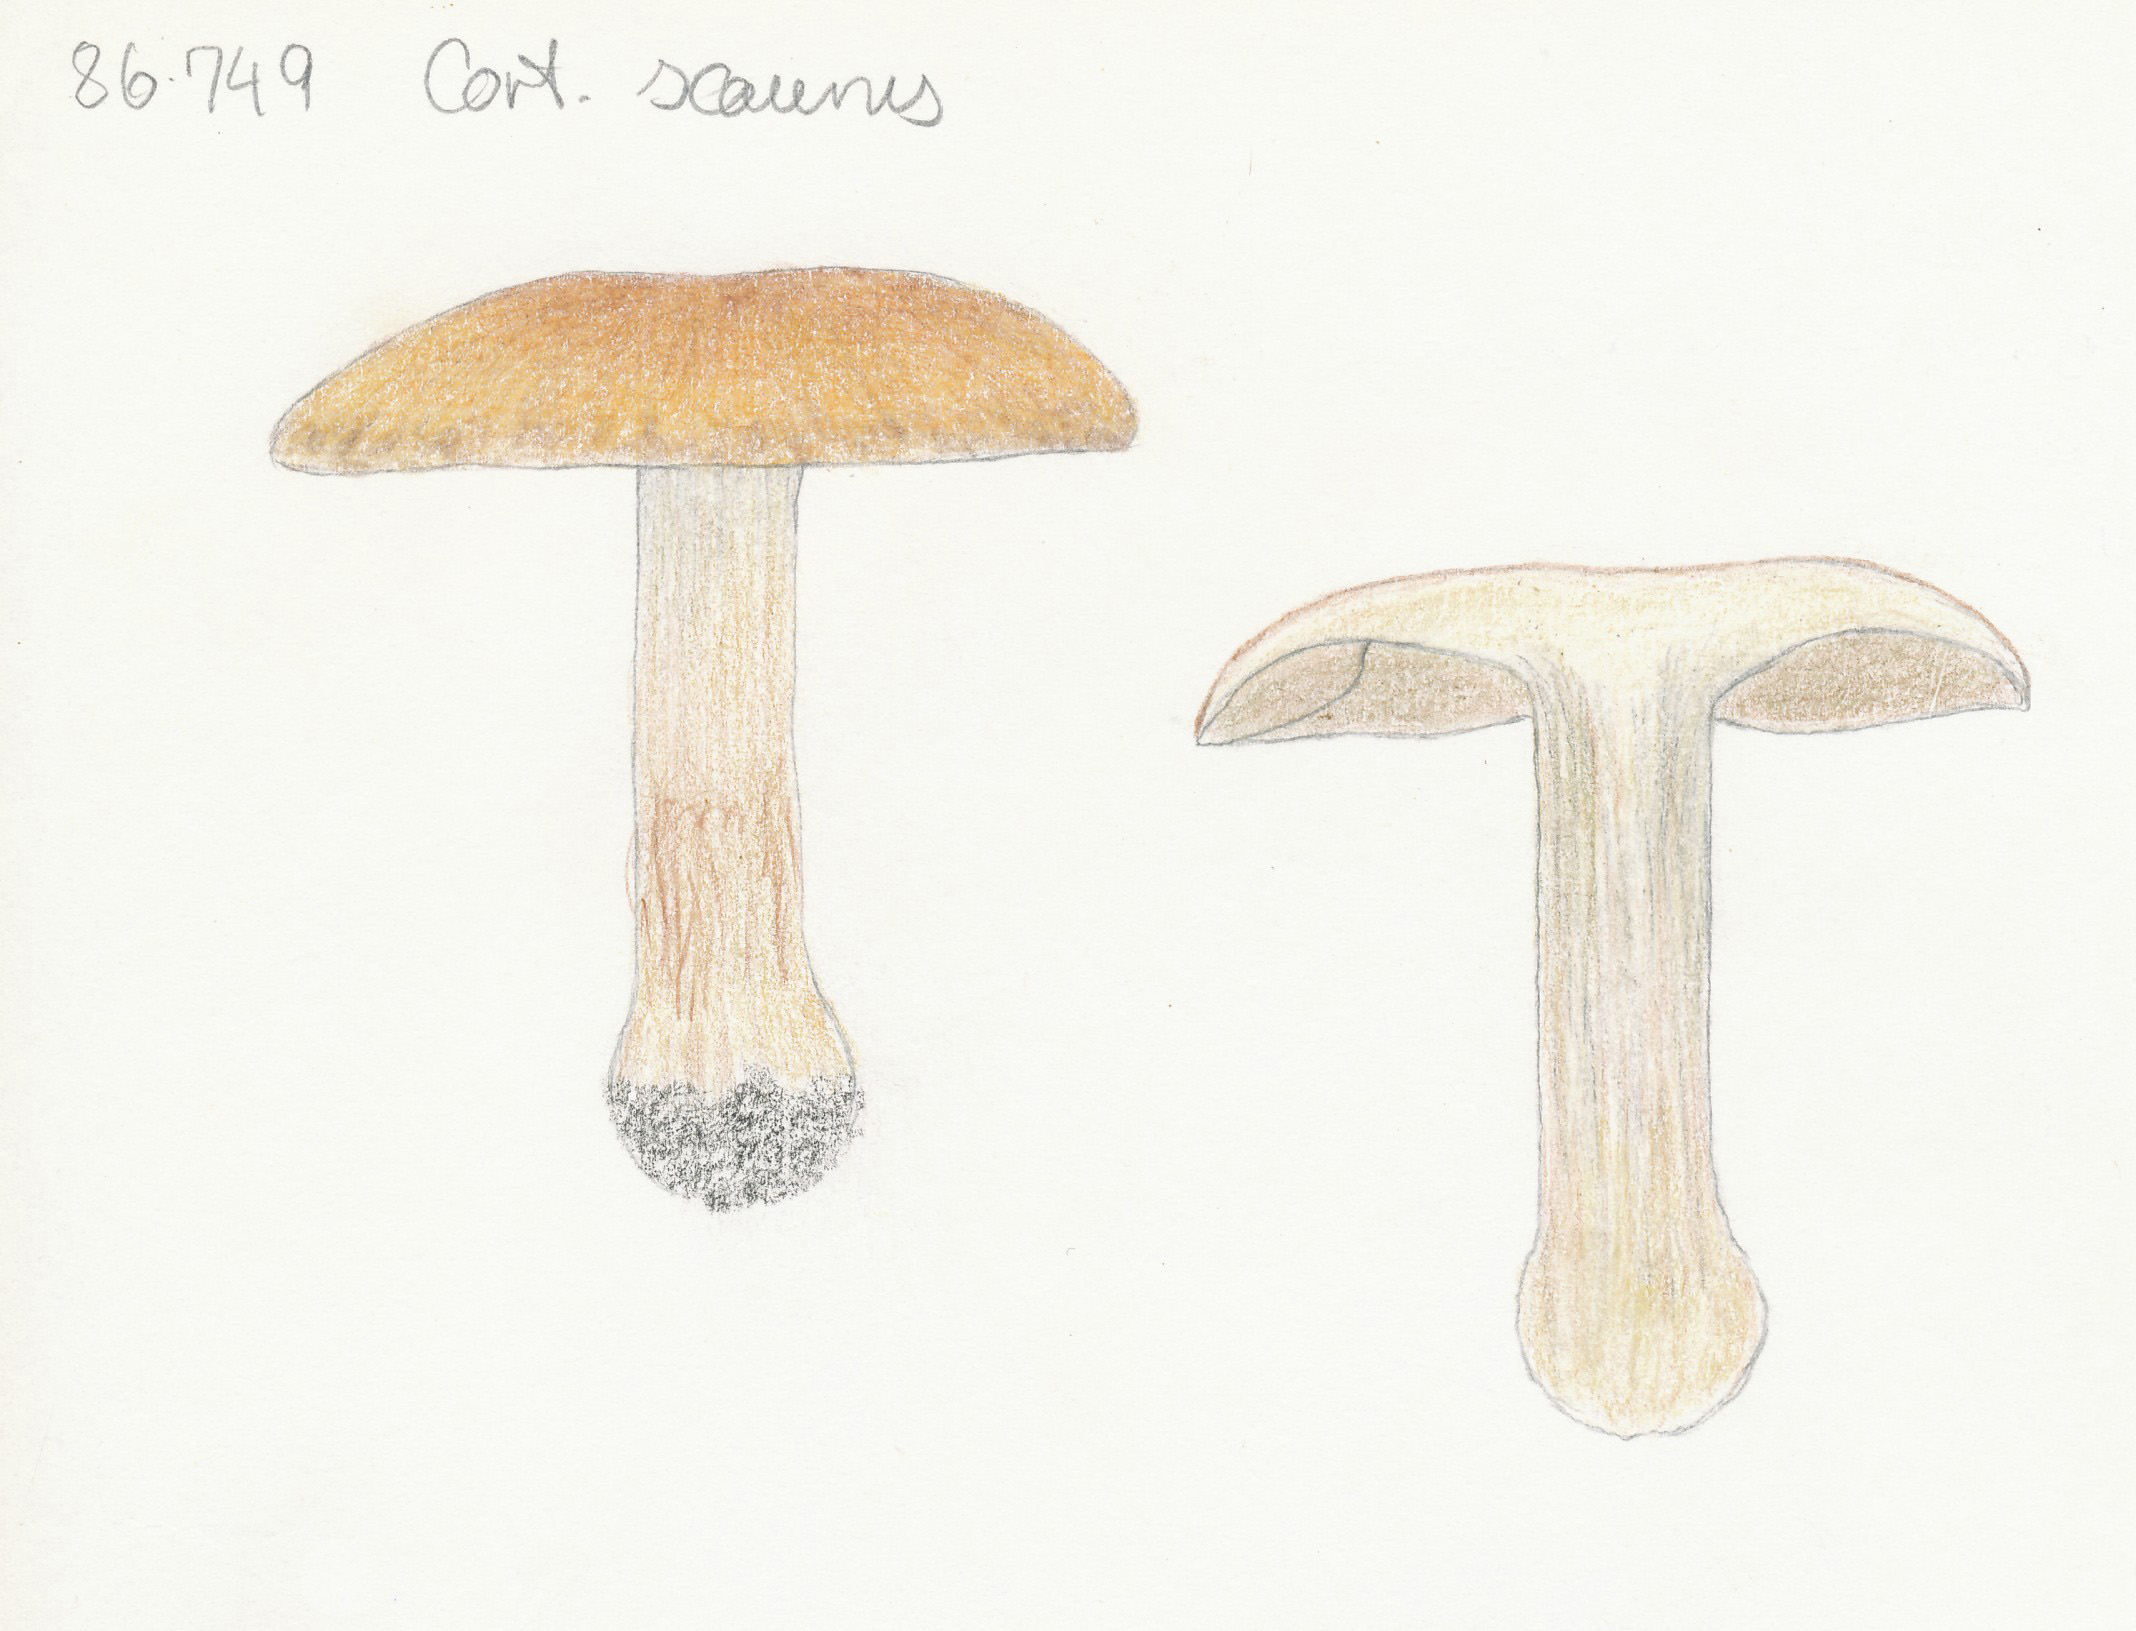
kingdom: Fungi
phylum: Basidiomycota
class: Agaricomycetes
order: Agaricales
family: Cortinariaceae
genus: Thaxterogaster
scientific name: Thaxterogaster scaurus
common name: sump-slørhat
